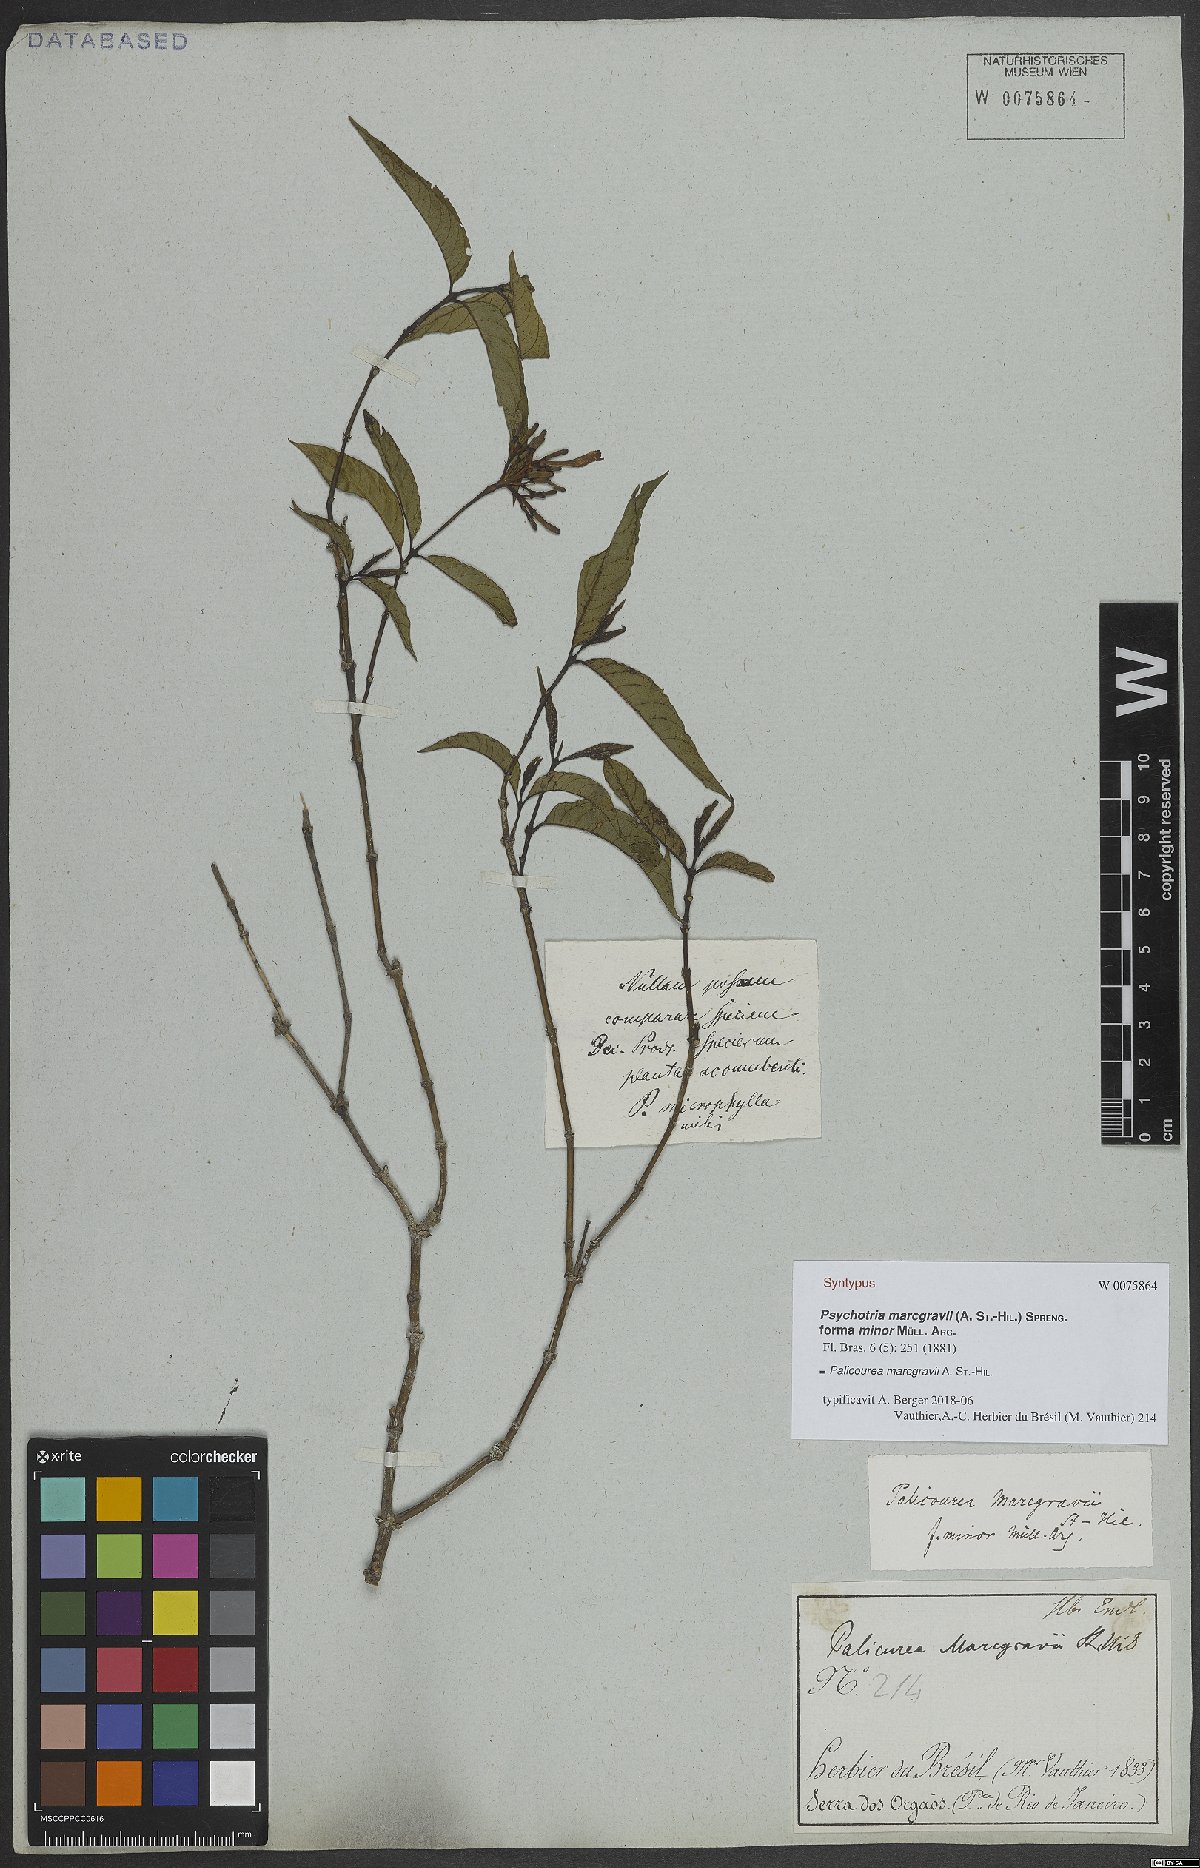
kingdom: Plantae
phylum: Tracheophyta
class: Magnoliopsida
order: Gentianales
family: Rubiaceae
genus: Palicourea
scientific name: Palicourea marcgravii
